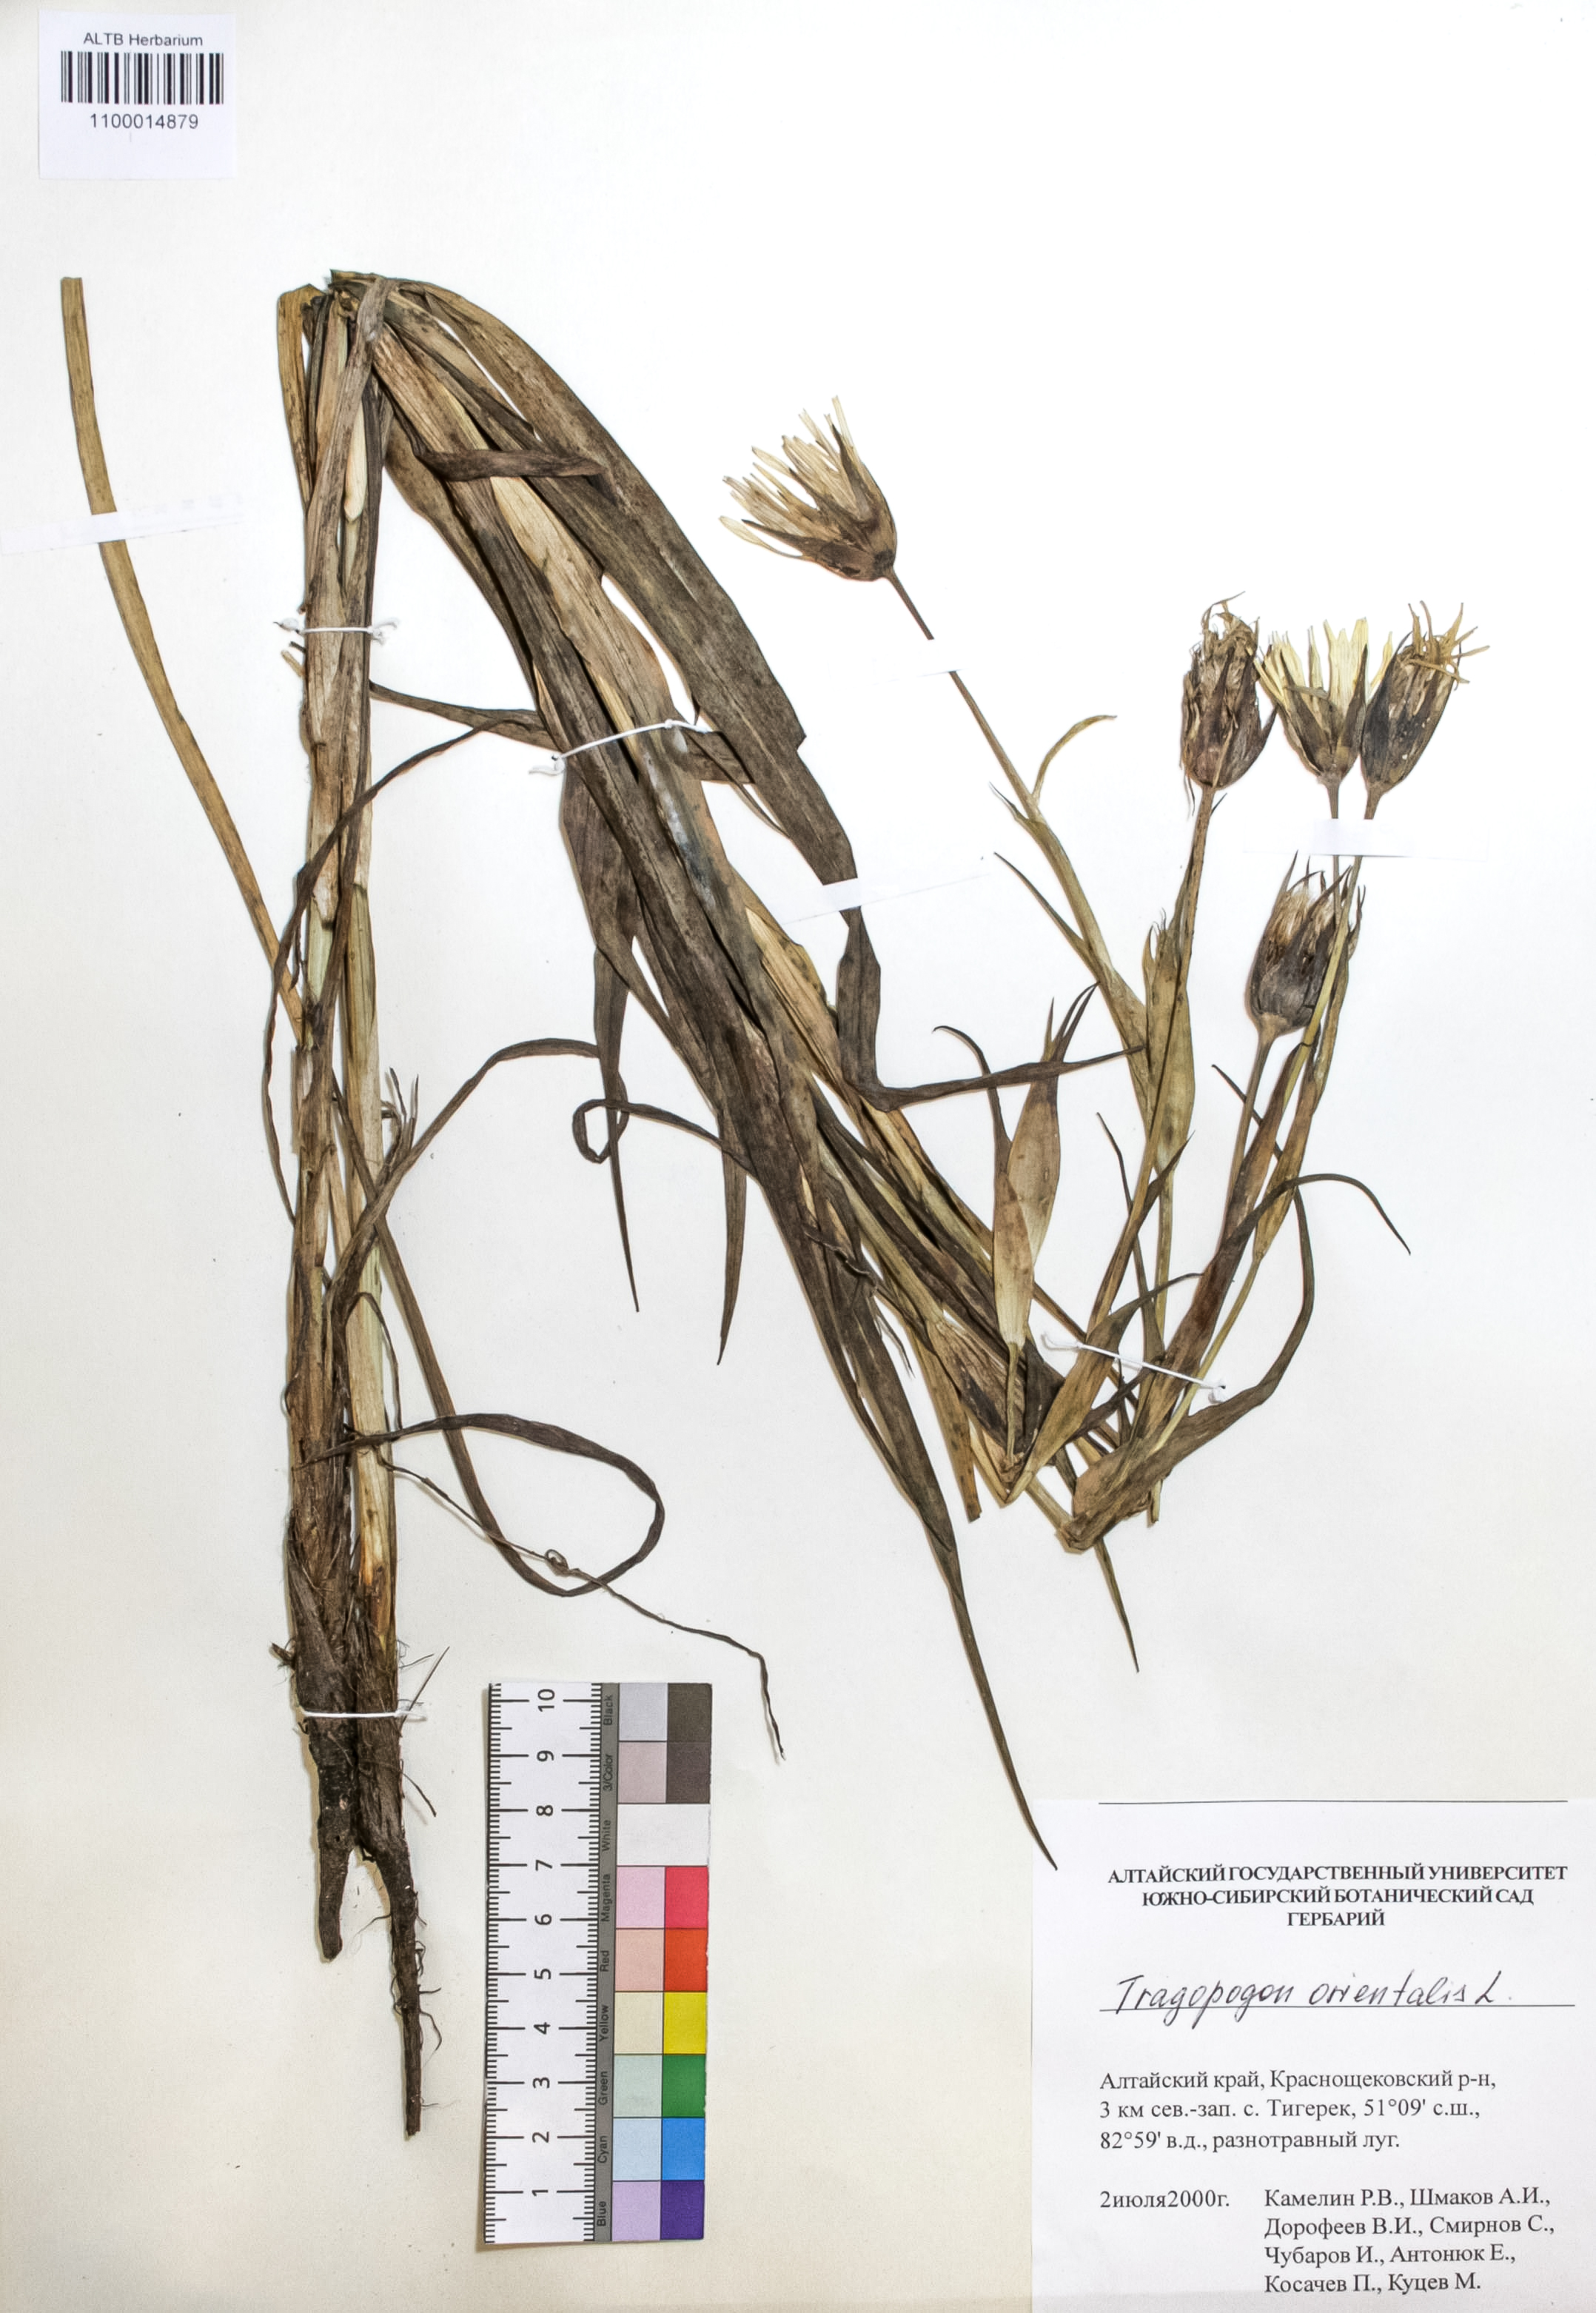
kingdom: Plantae
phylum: Tracheophyta
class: Magnoliopsida
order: Asterales
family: Asteraceae
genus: Tragopogon
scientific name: Tragopogon orientalis
